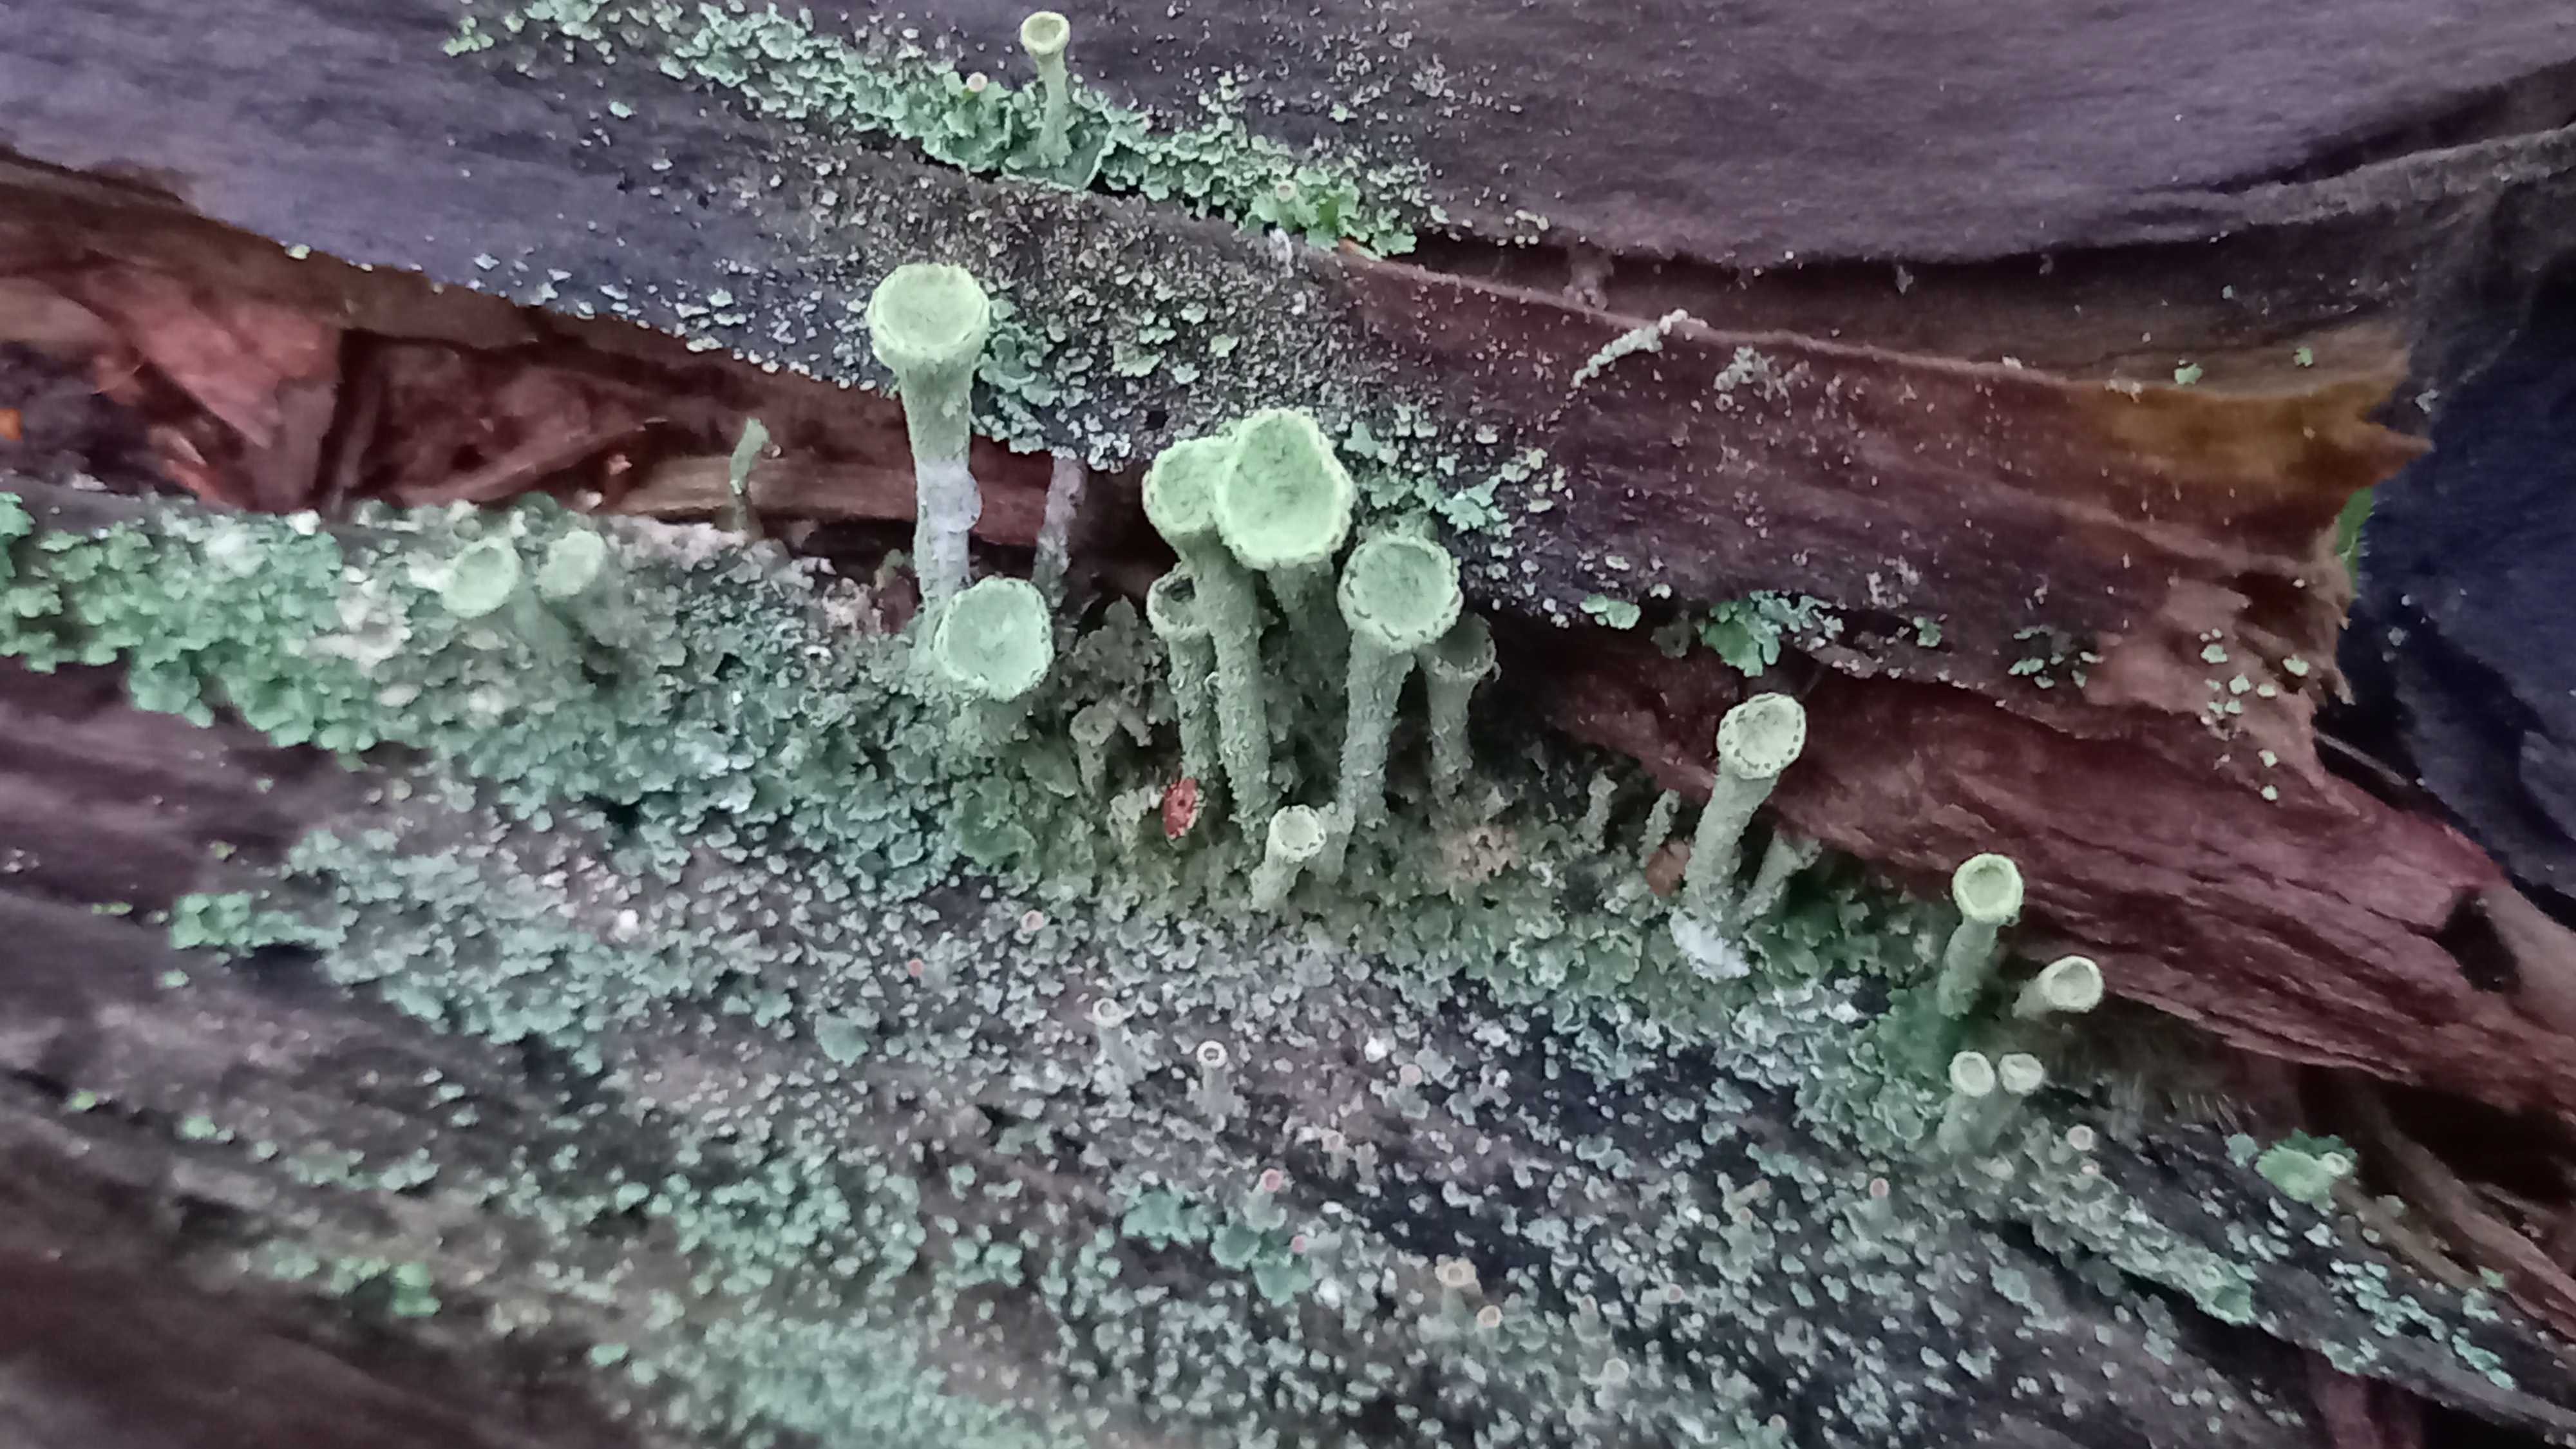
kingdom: Fungi
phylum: Ascomycota
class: Lecanoromycetes
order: Lecanorales
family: Cladoniaceae
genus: Cladonia
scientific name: Cladonia
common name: brungrøn bægerlav
